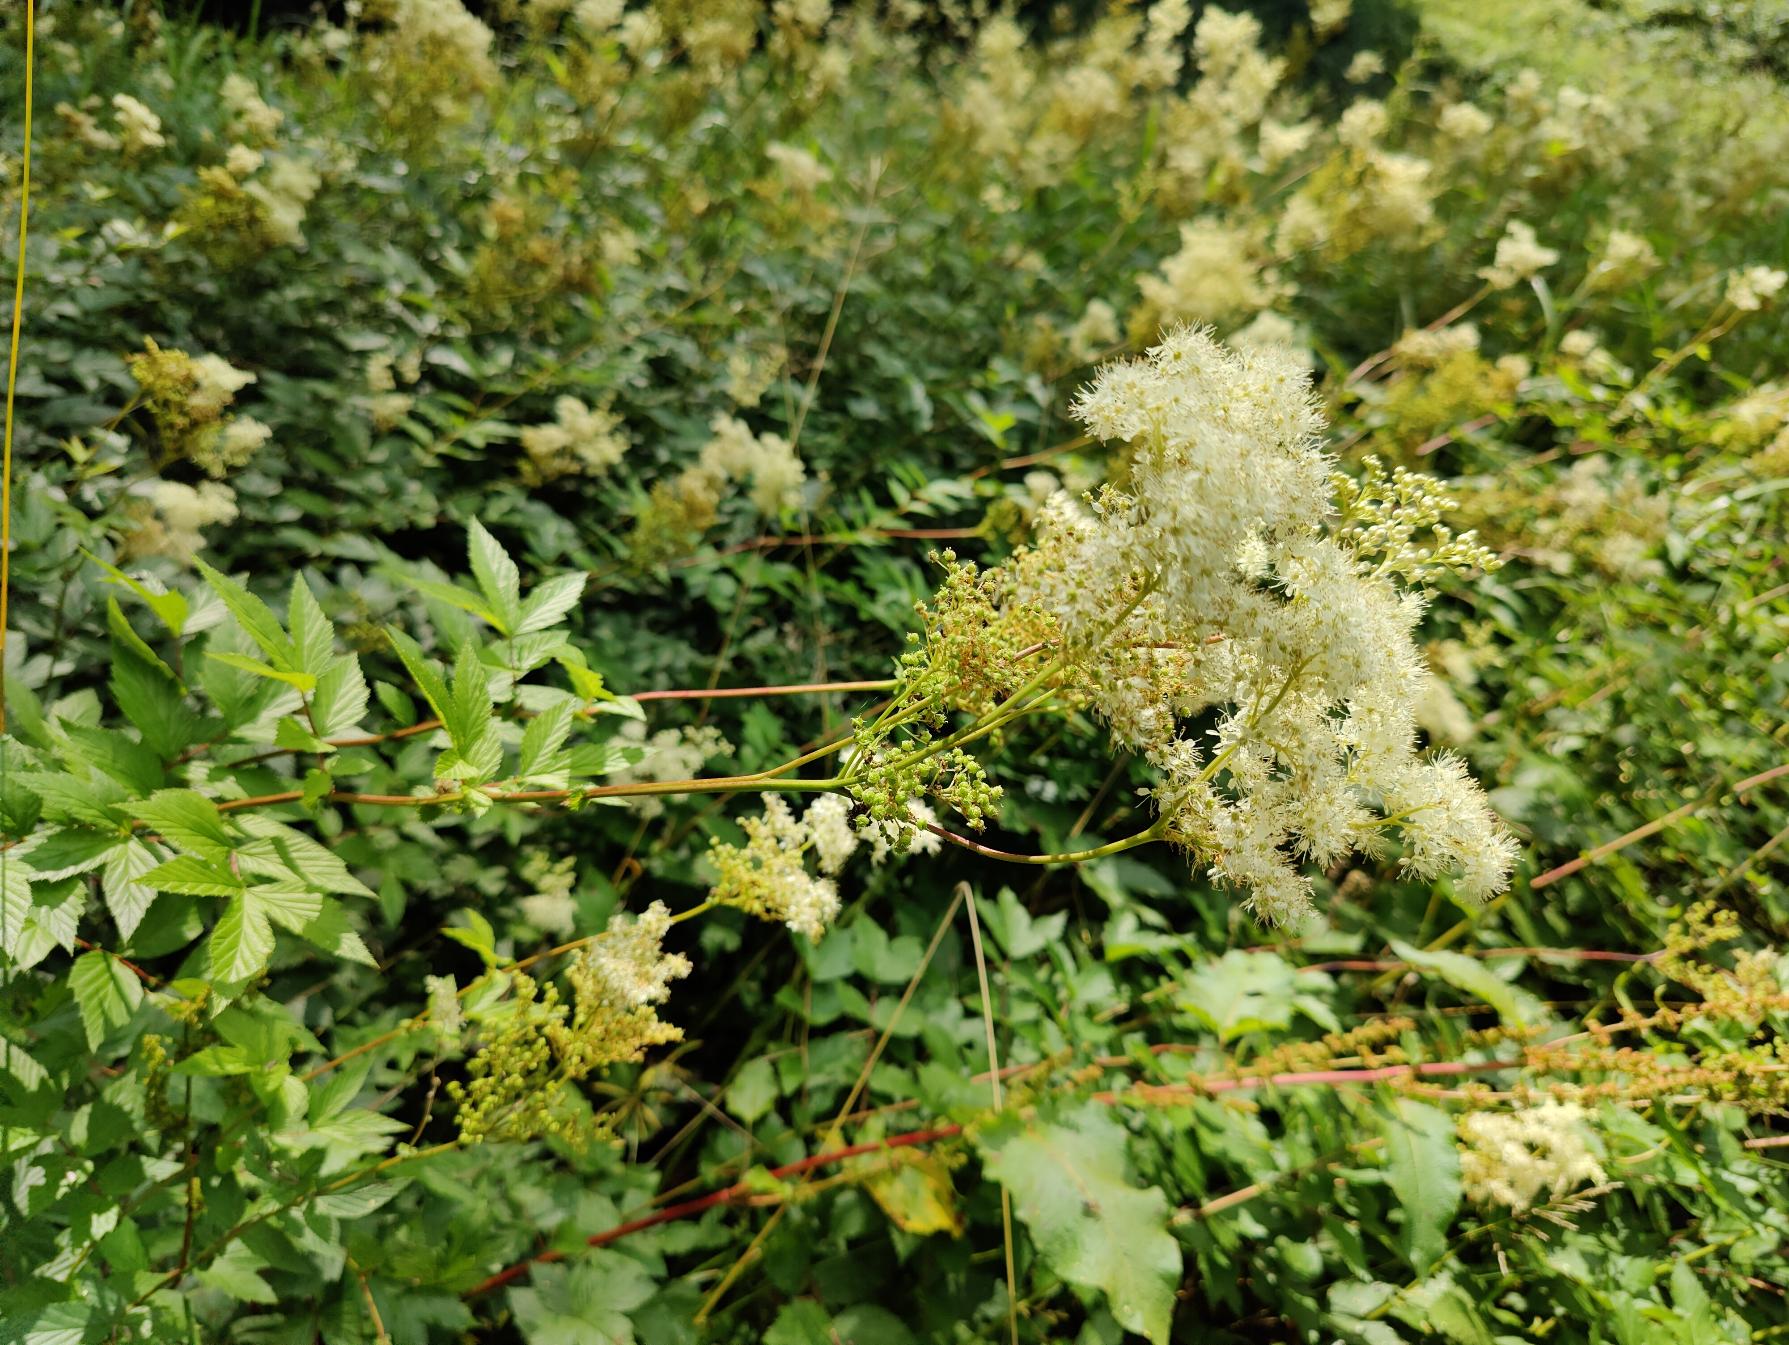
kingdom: Plantae
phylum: Tracheophyta
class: Magnoliopsida
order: Rosales
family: Rosaceae
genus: Filipendula
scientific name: Filipendula ulmaria
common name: Almindelig mjødurt
